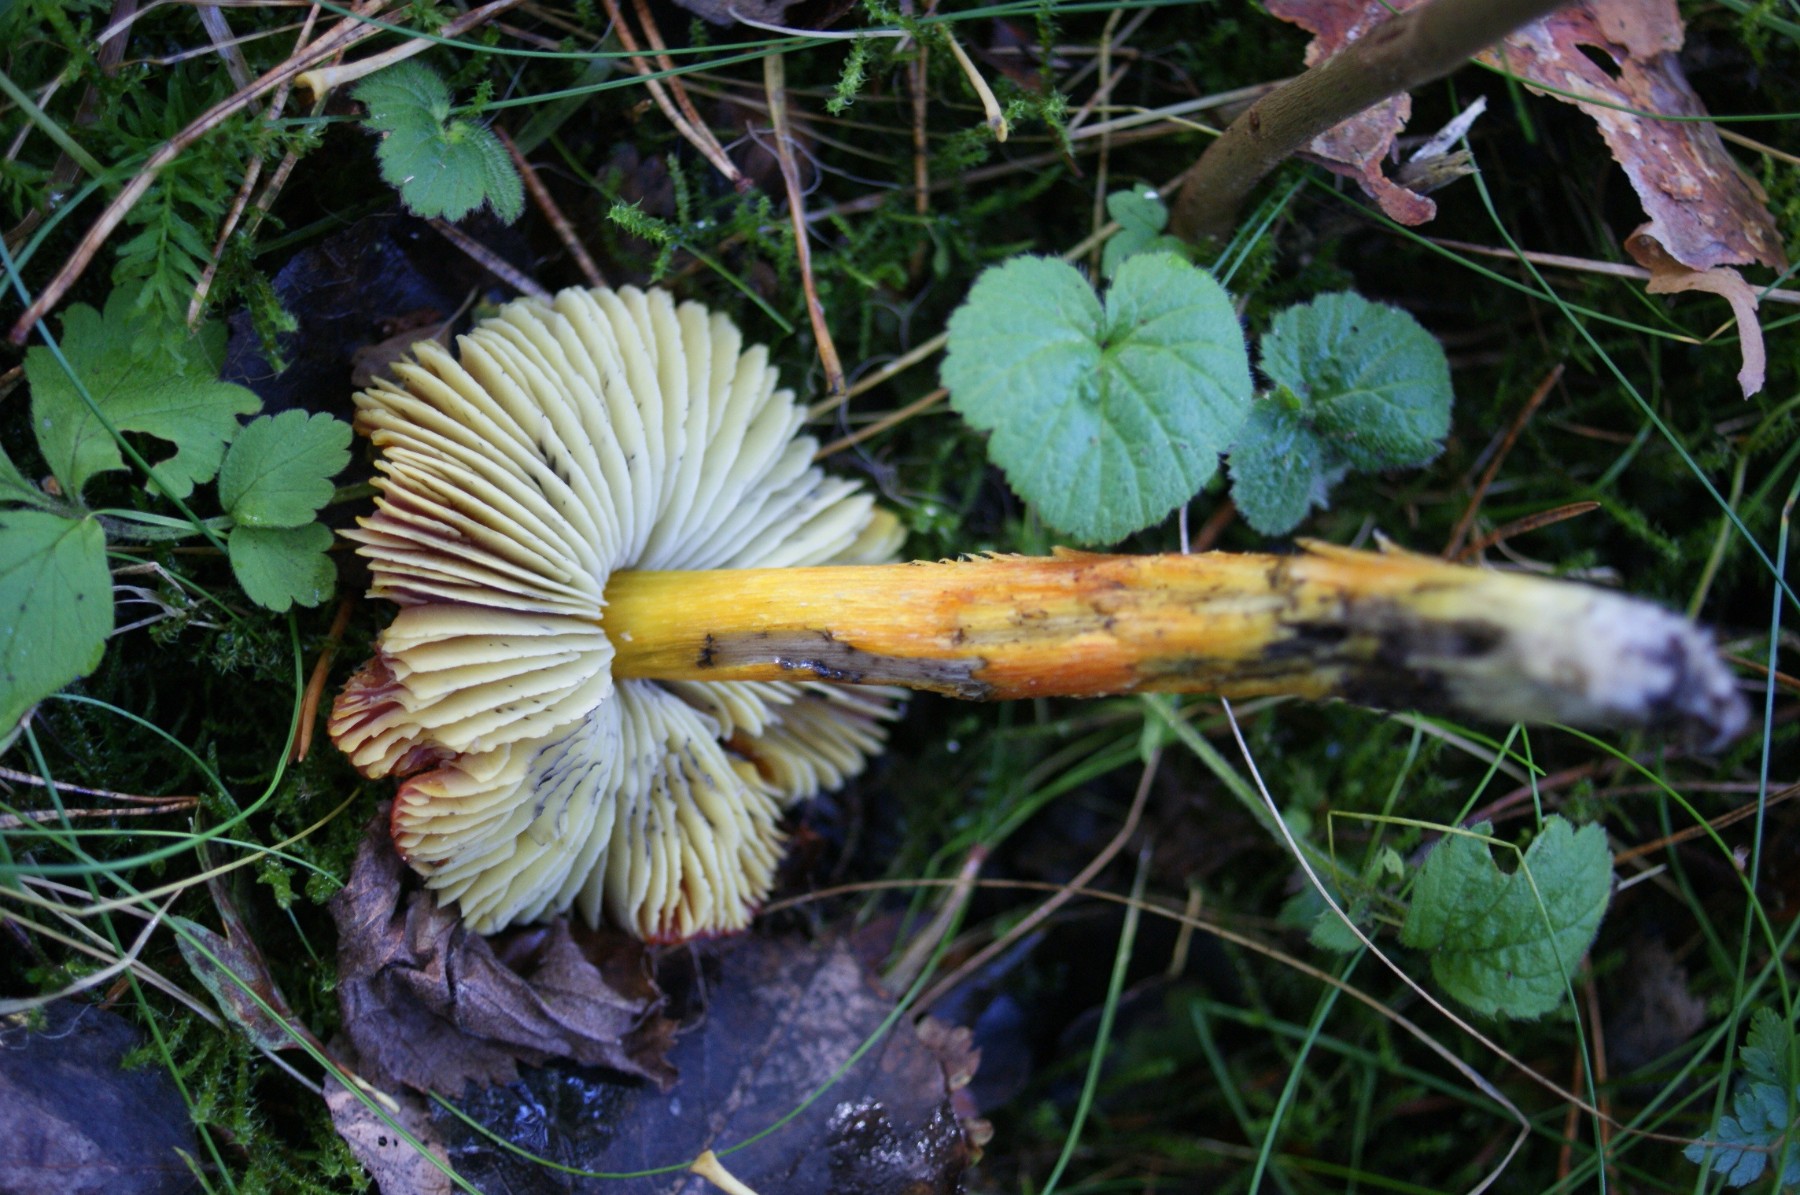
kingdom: Fungi
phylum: Basidiomycota
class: Agaricomycetes
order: Agaricales
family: Hygrophoraceae
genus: Hygrocybe
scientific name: Hygrocybe conica
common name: Blackening wax-cap
